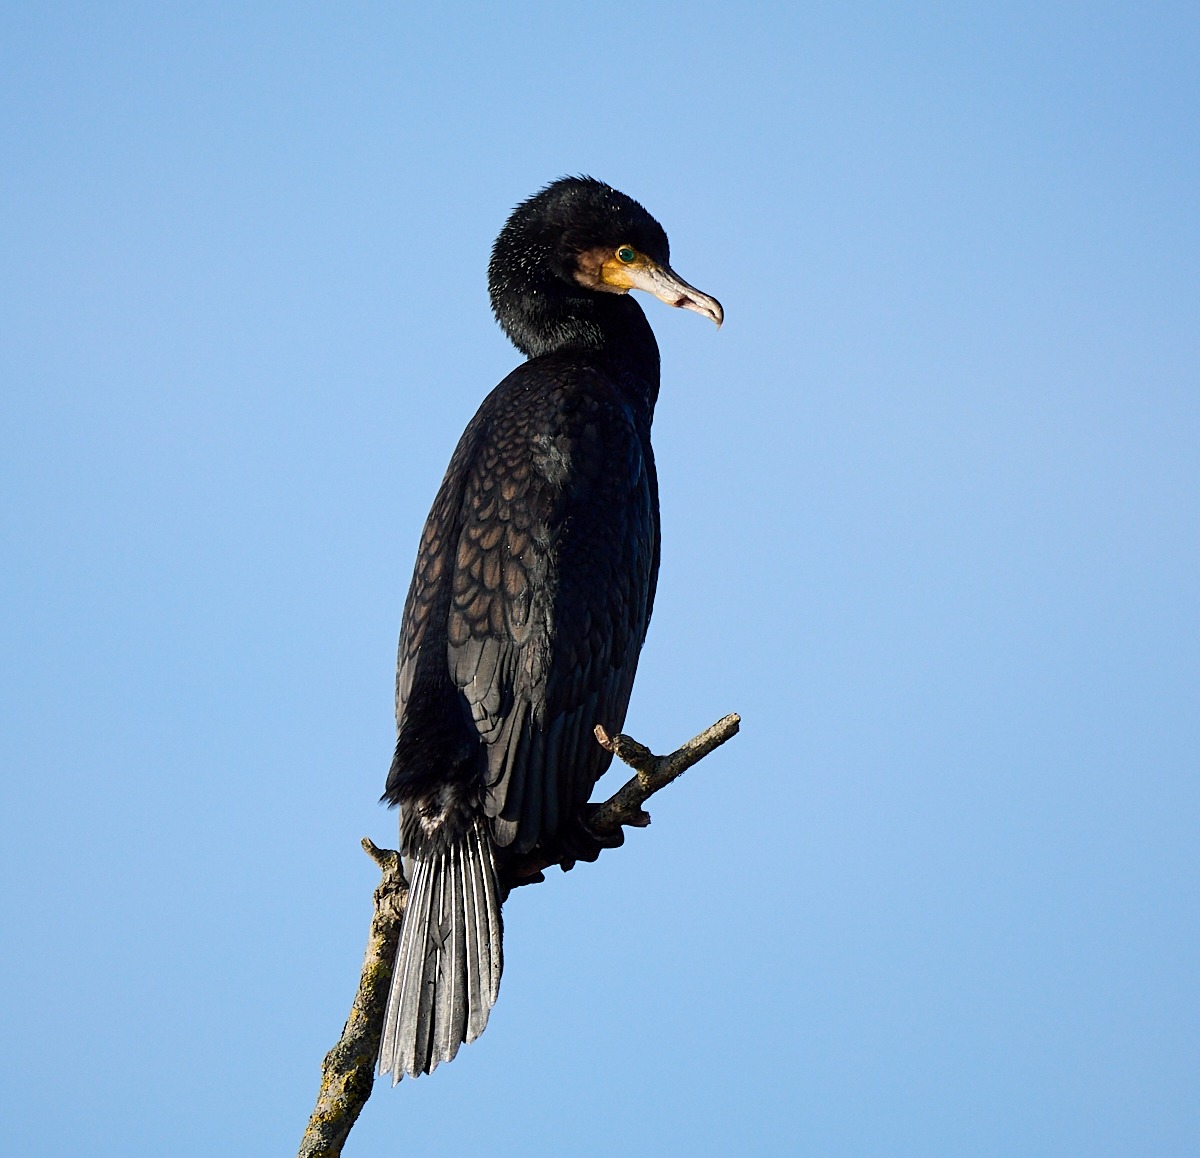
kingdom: Animalia
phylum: Chordata
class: Aves
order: Suliformes
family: Phalacrocoracidae
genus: Phalacrocorax
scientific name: Phalacrocorax carbo
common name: Skarv
